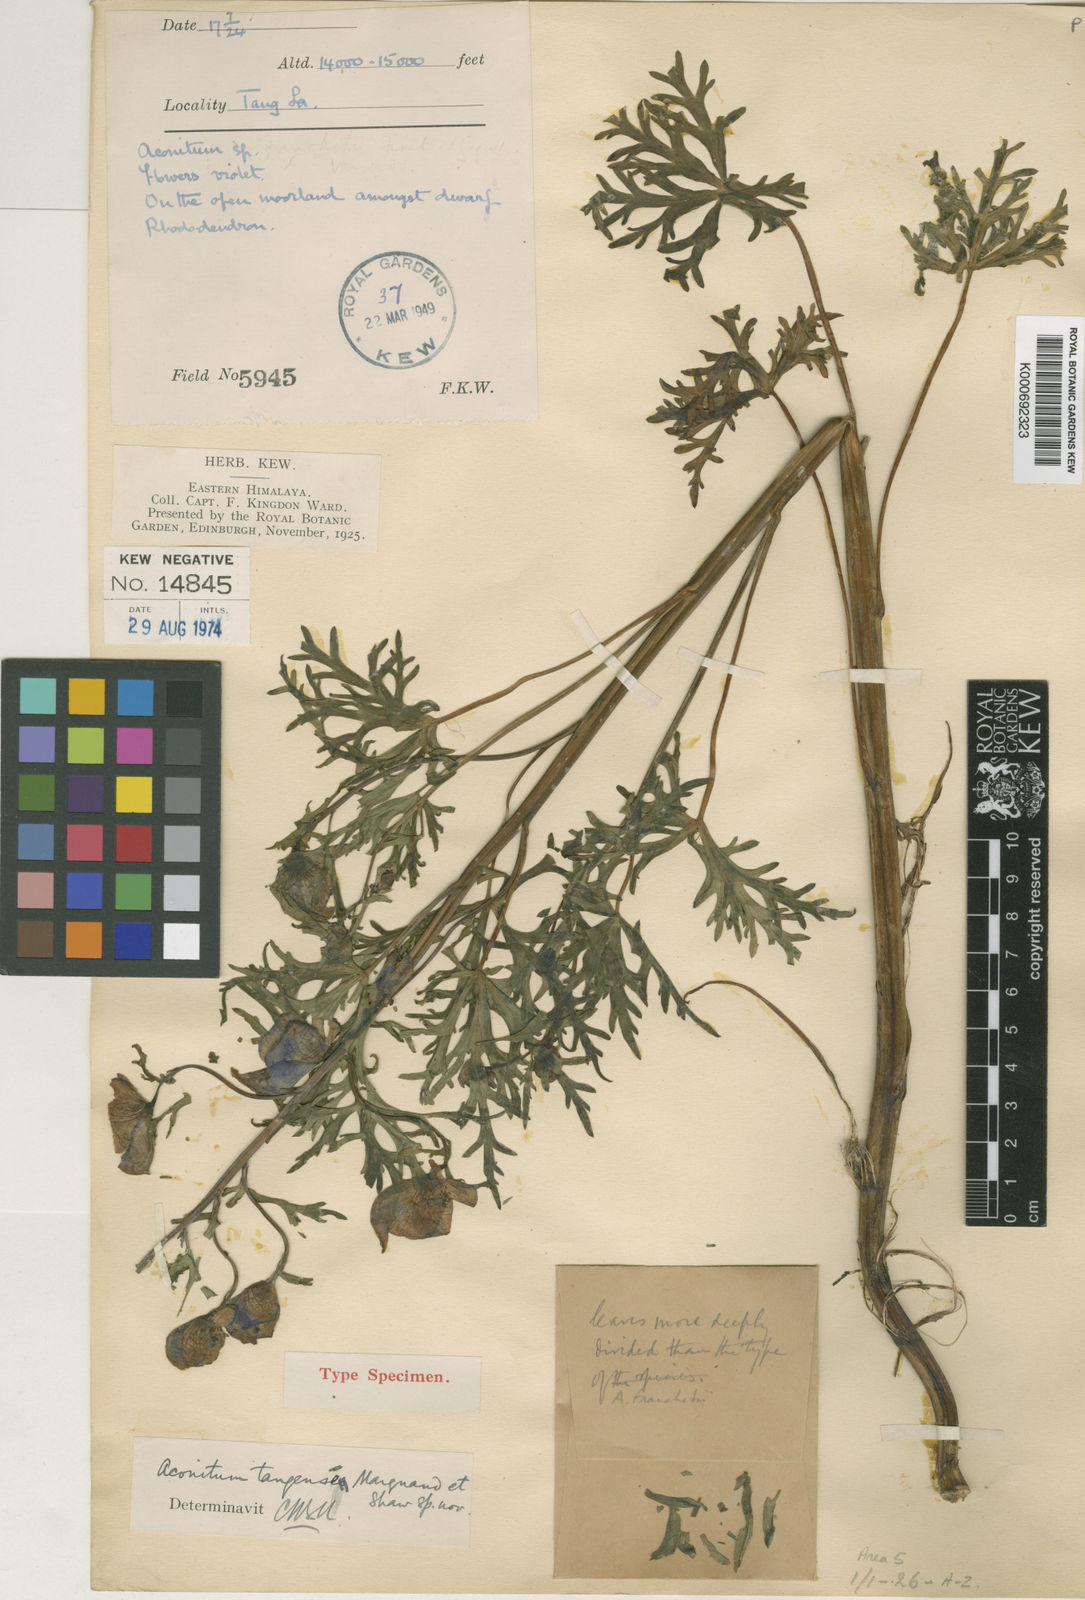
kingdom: Plantae
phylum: Tracheophyta
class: Magnoliopsida
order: Ranunculales
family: Ranunculaceae
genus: Aconitum
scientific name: Aconitum tangense
